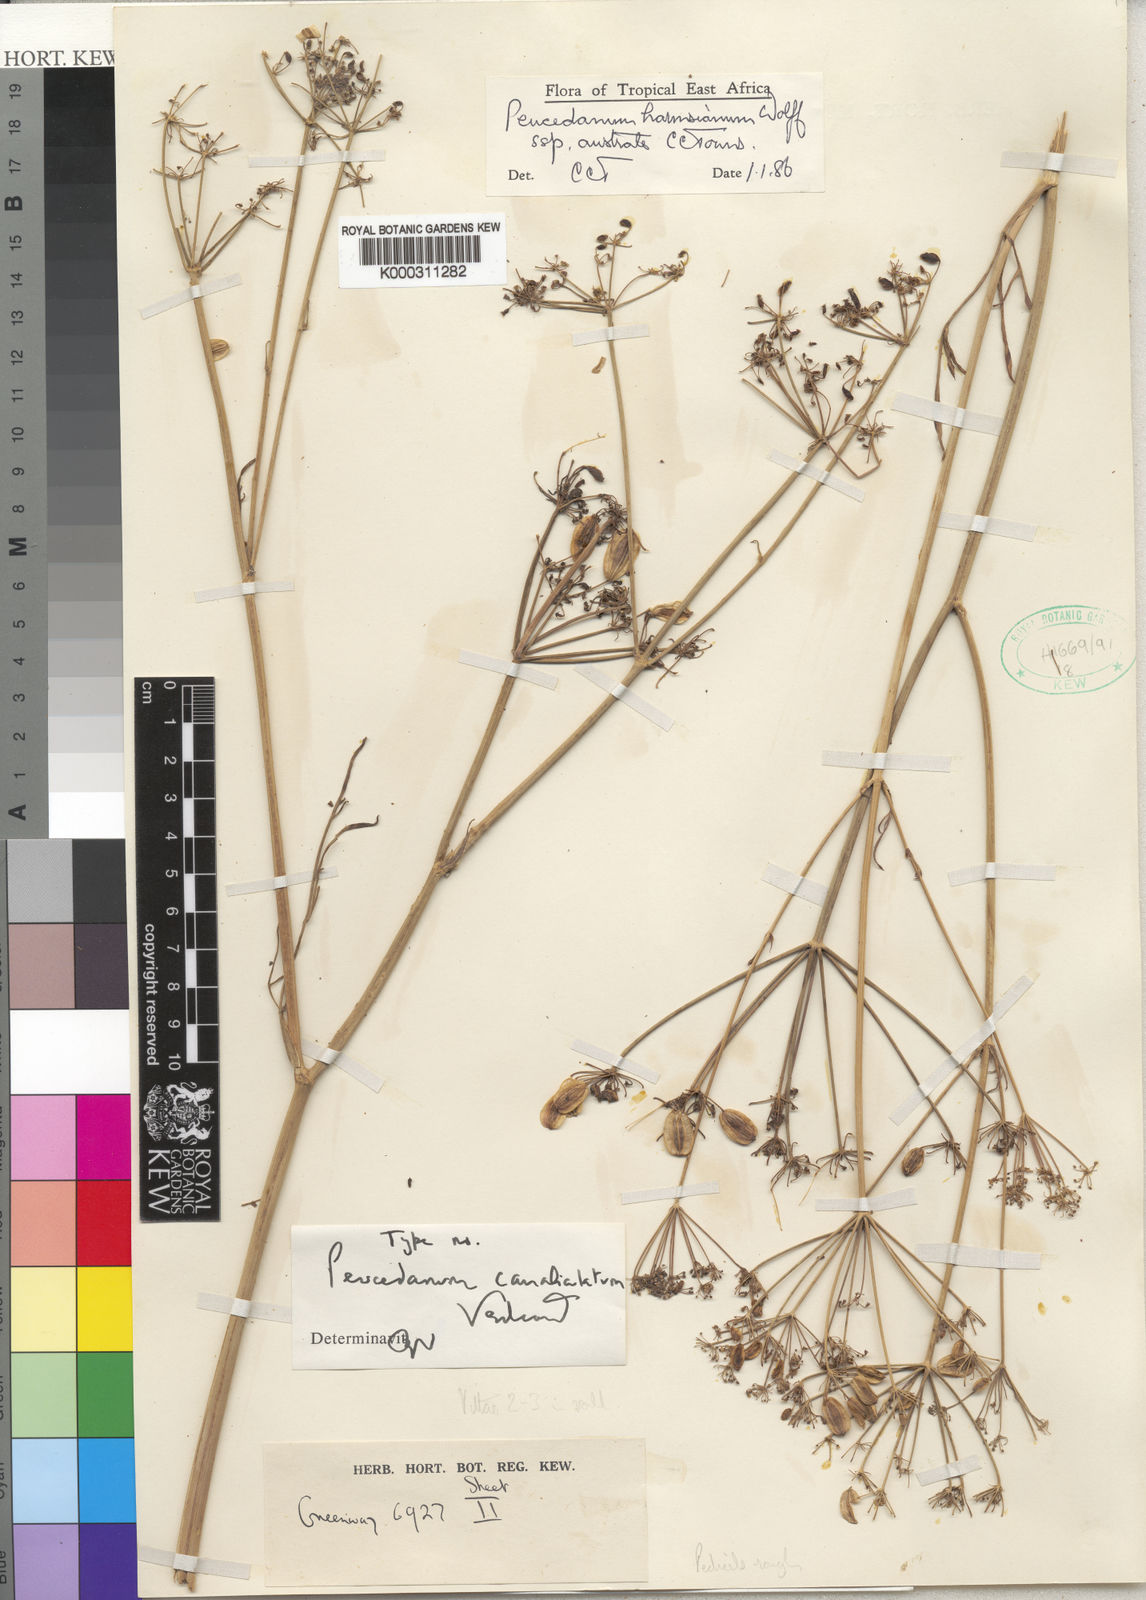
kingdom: Plantae
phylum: Tracheophyta
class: Magnoliopsida
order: Apiales
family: Apiaceae
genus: Afrosciadium
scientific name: Afrosciadium harmsianum
